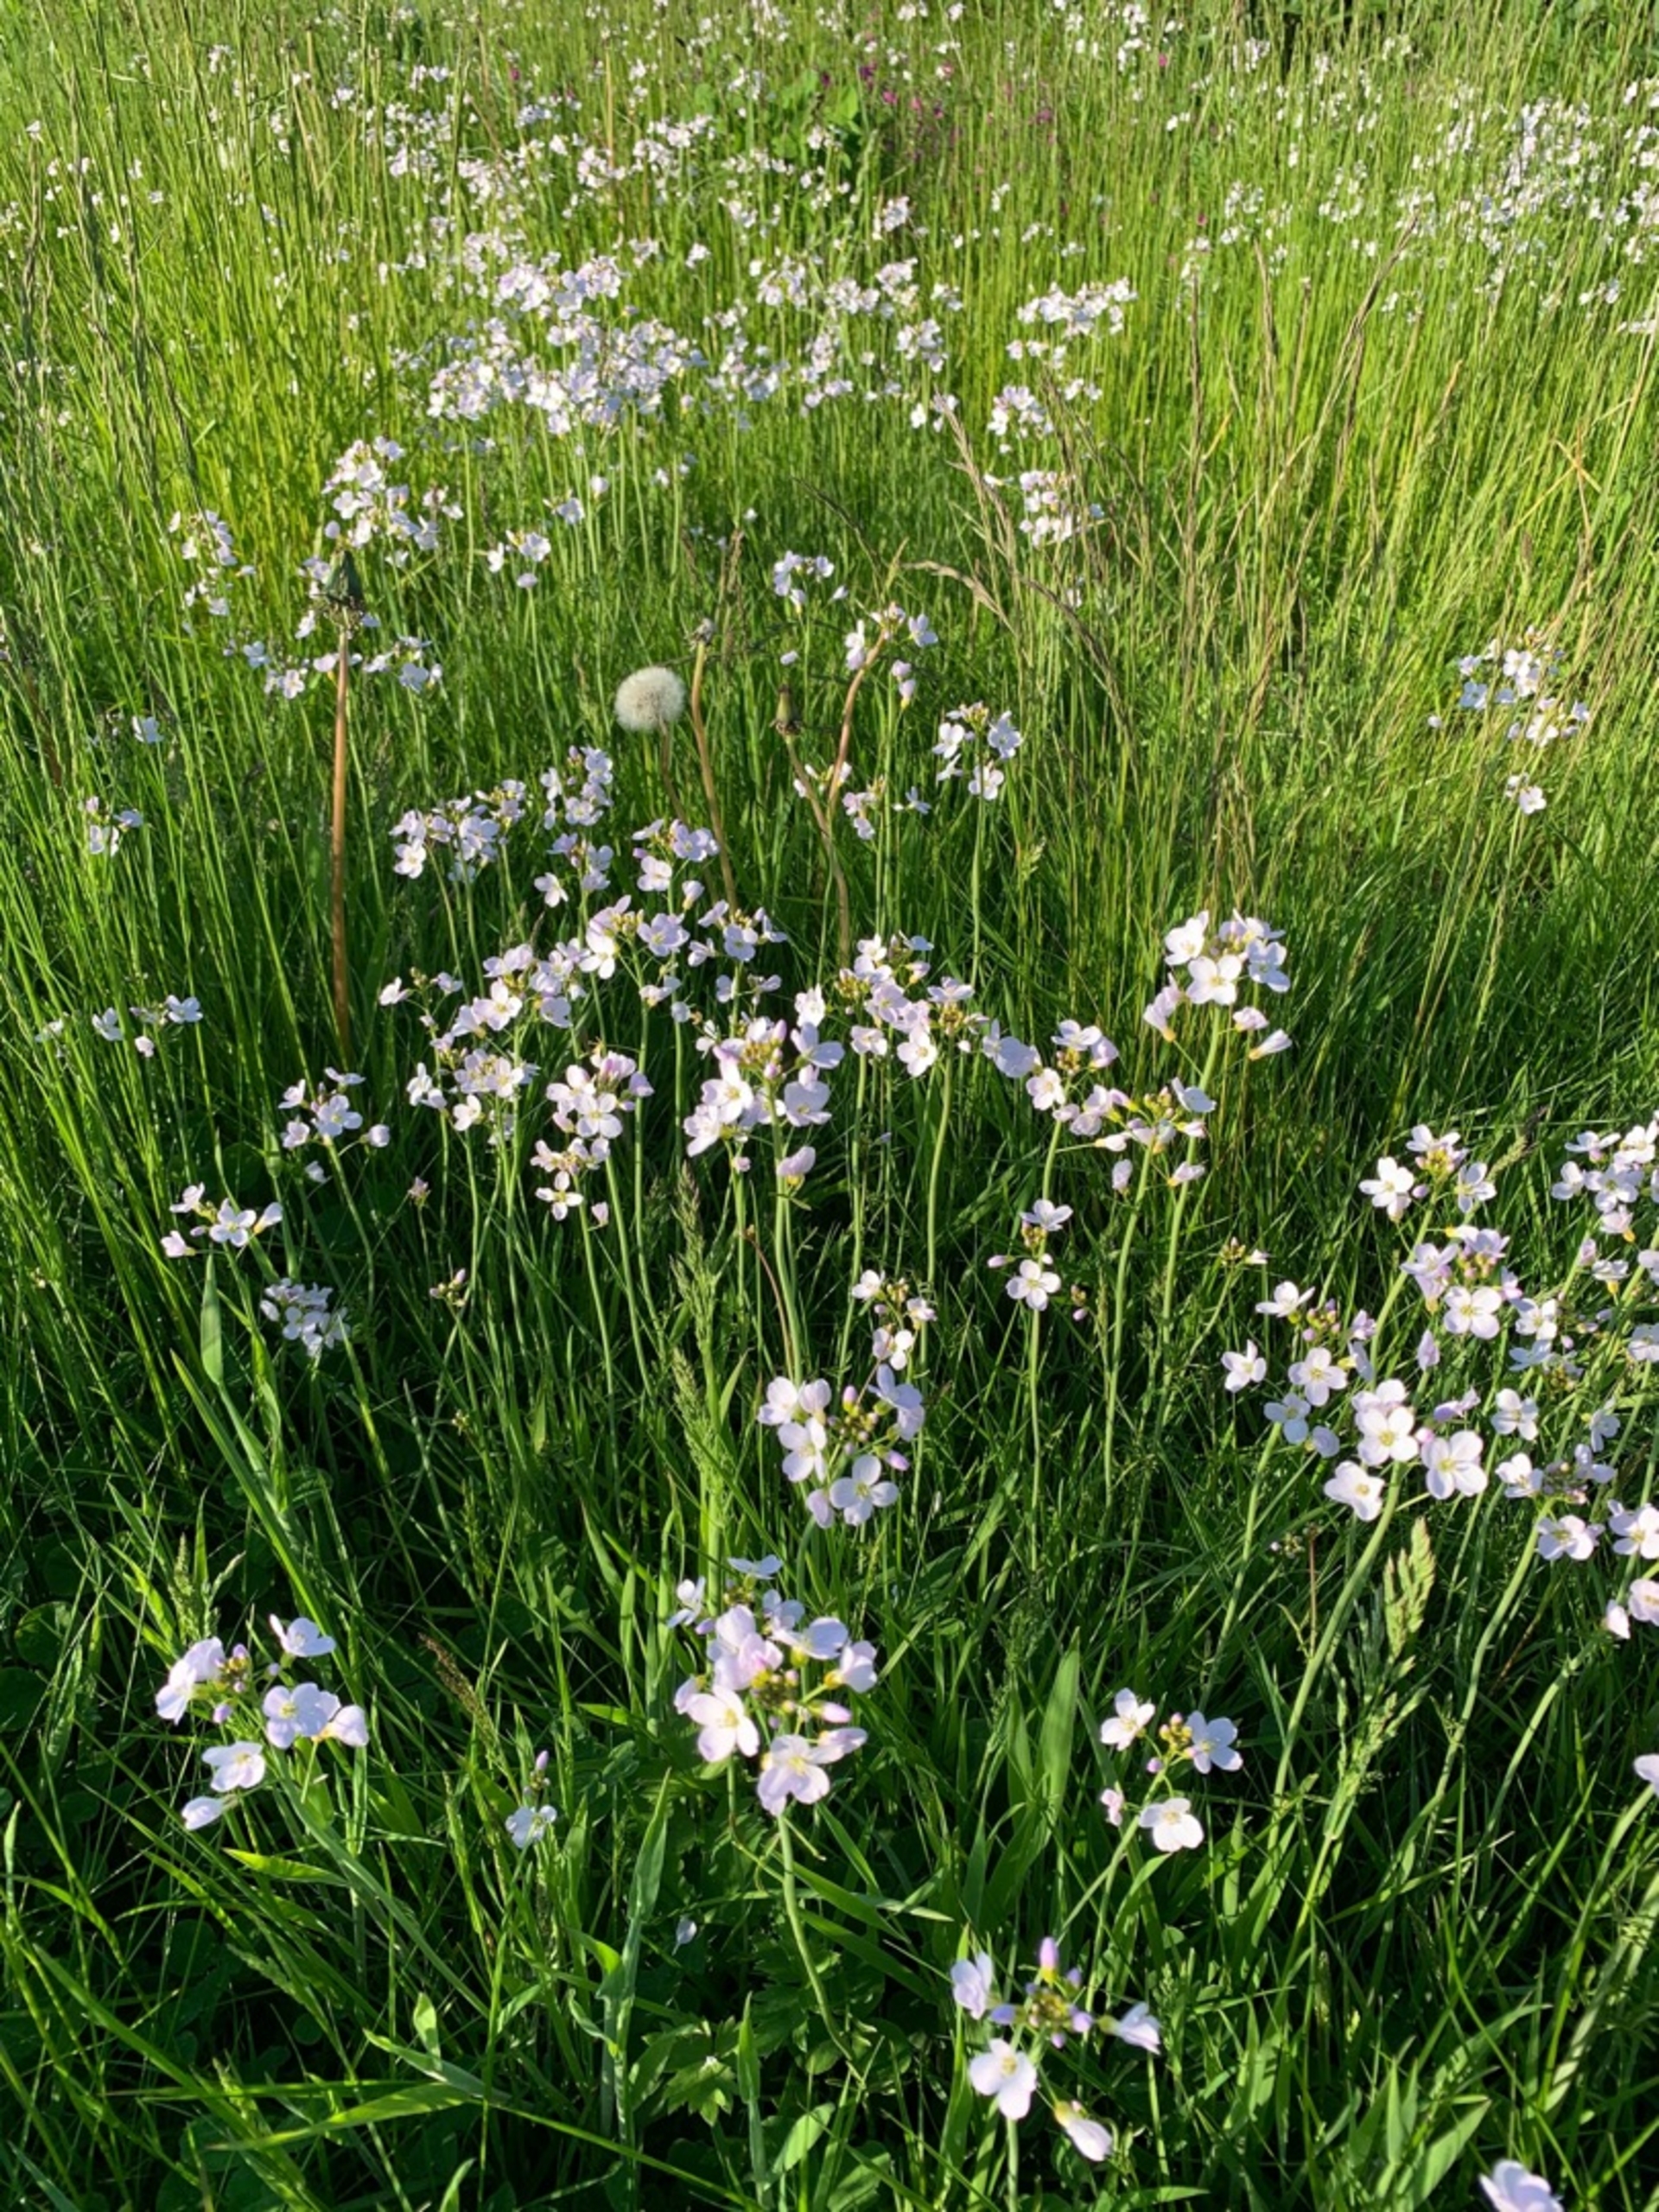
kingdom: Plantae
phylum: Tracheophyta
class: Magnoliopsida
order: Brassicales
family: Brassicaceae
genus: Cardamine
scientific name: Cardamine pratensis
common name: Engkarse
